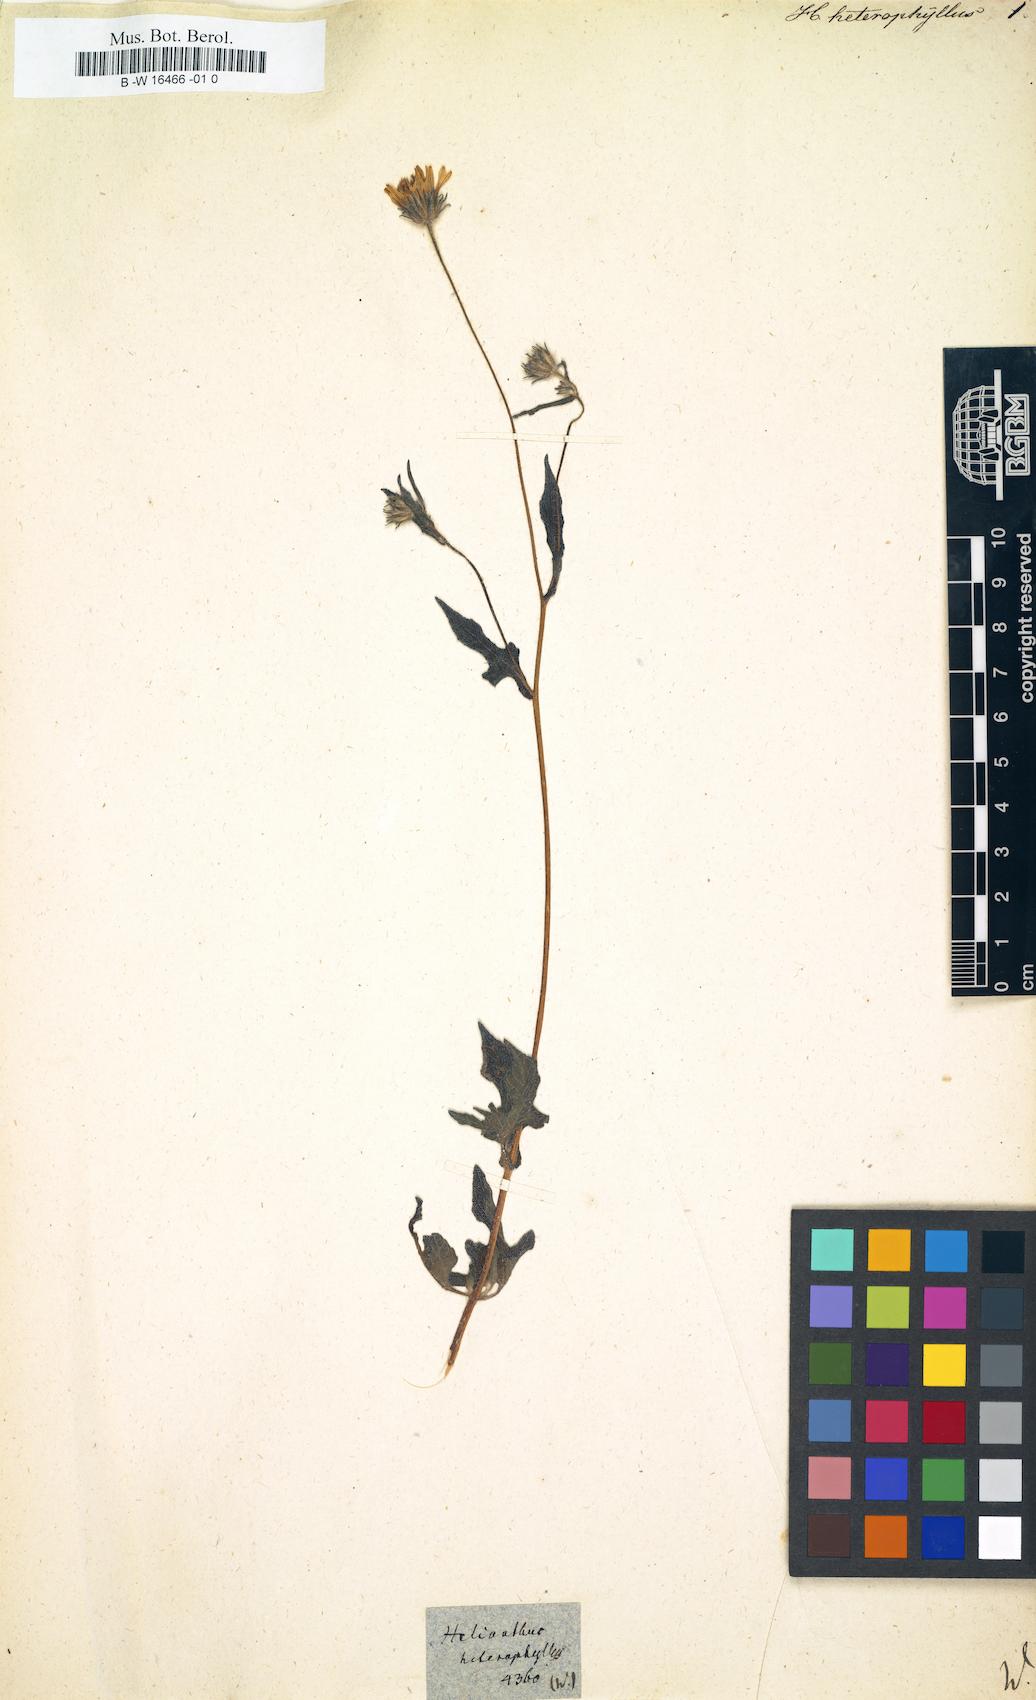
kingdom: Plantae
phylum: Tracheophyta
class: Magnoliopsida
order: Asterales
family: Asteraceae
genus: Helianthus
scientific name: Helianthus heterophyllus
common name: Wetland sunflower
